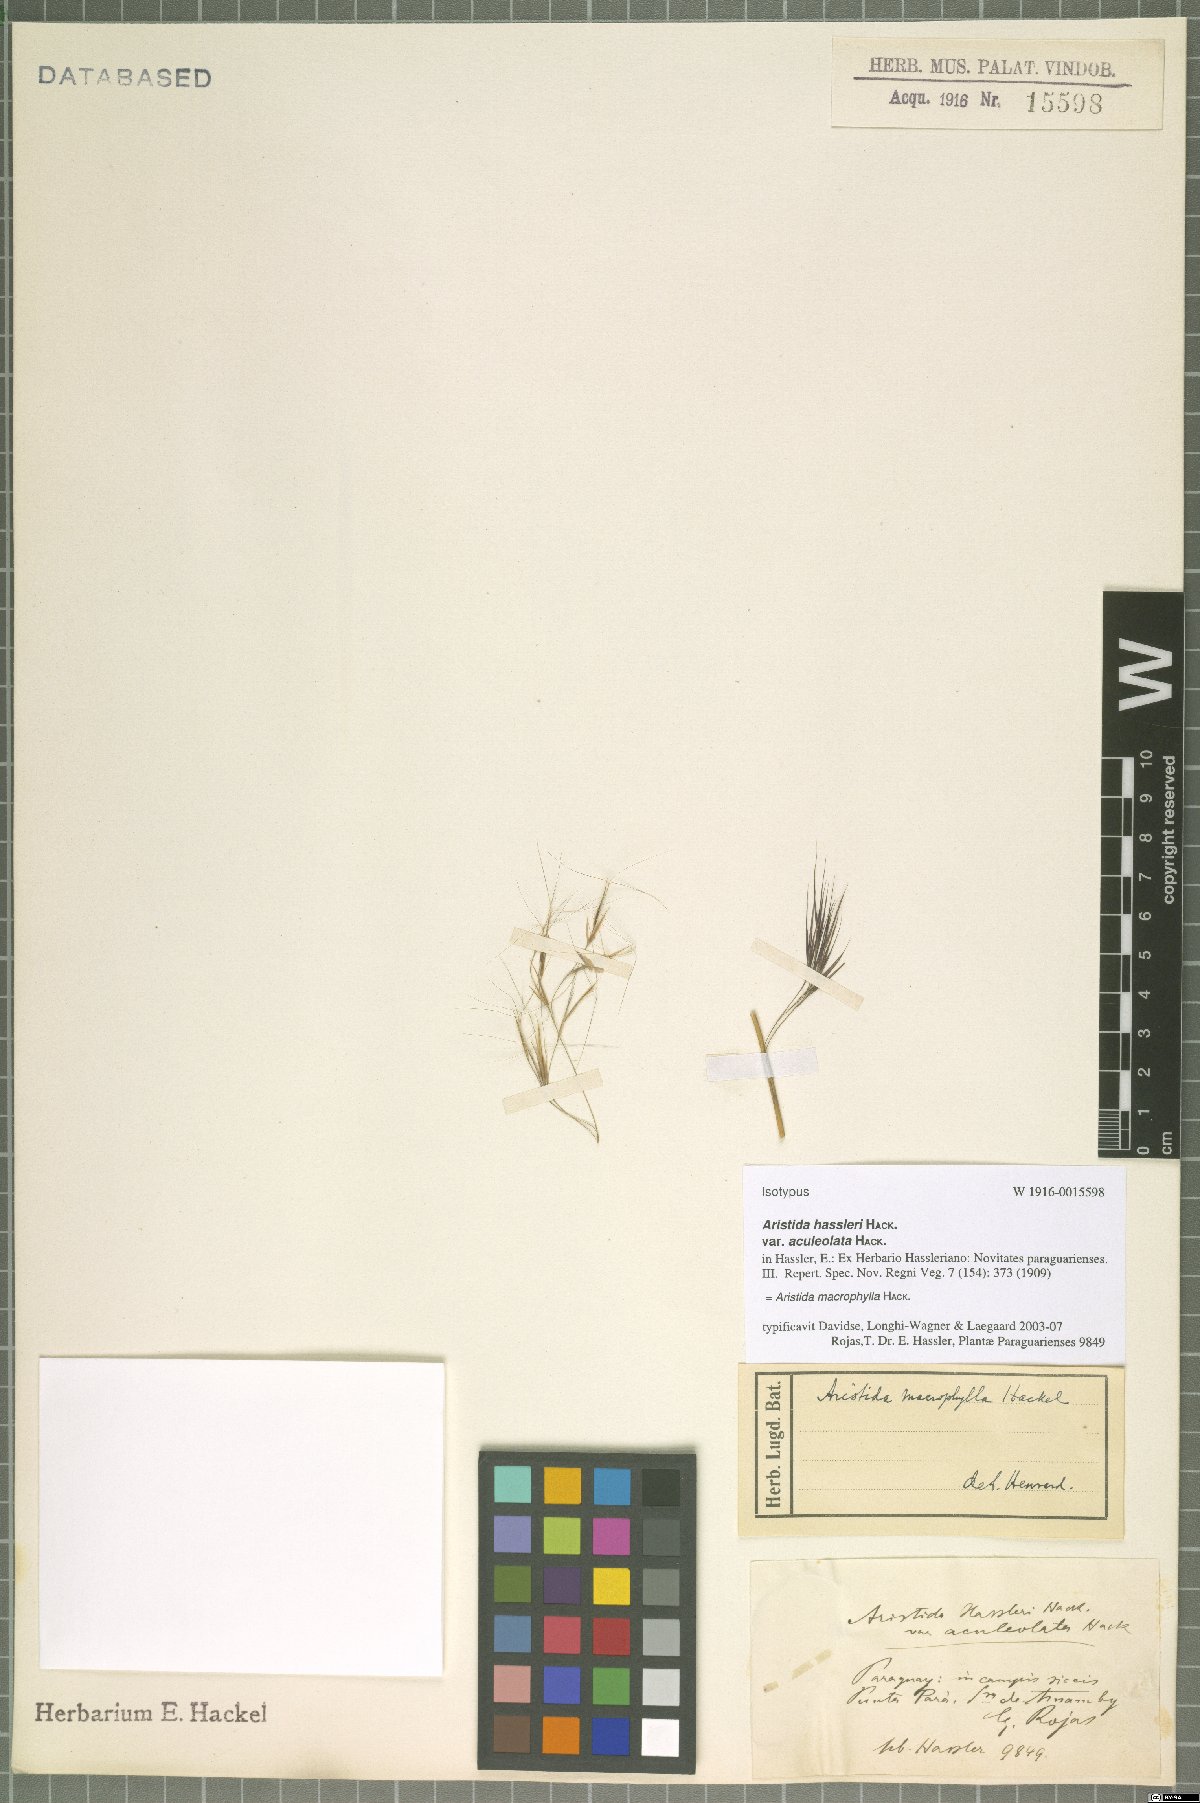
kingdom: Plantae
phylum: Tracheophyta
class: Liliopsida
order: Poales
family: Poaceae
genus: Aristida
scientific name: Aristida macrophylla
